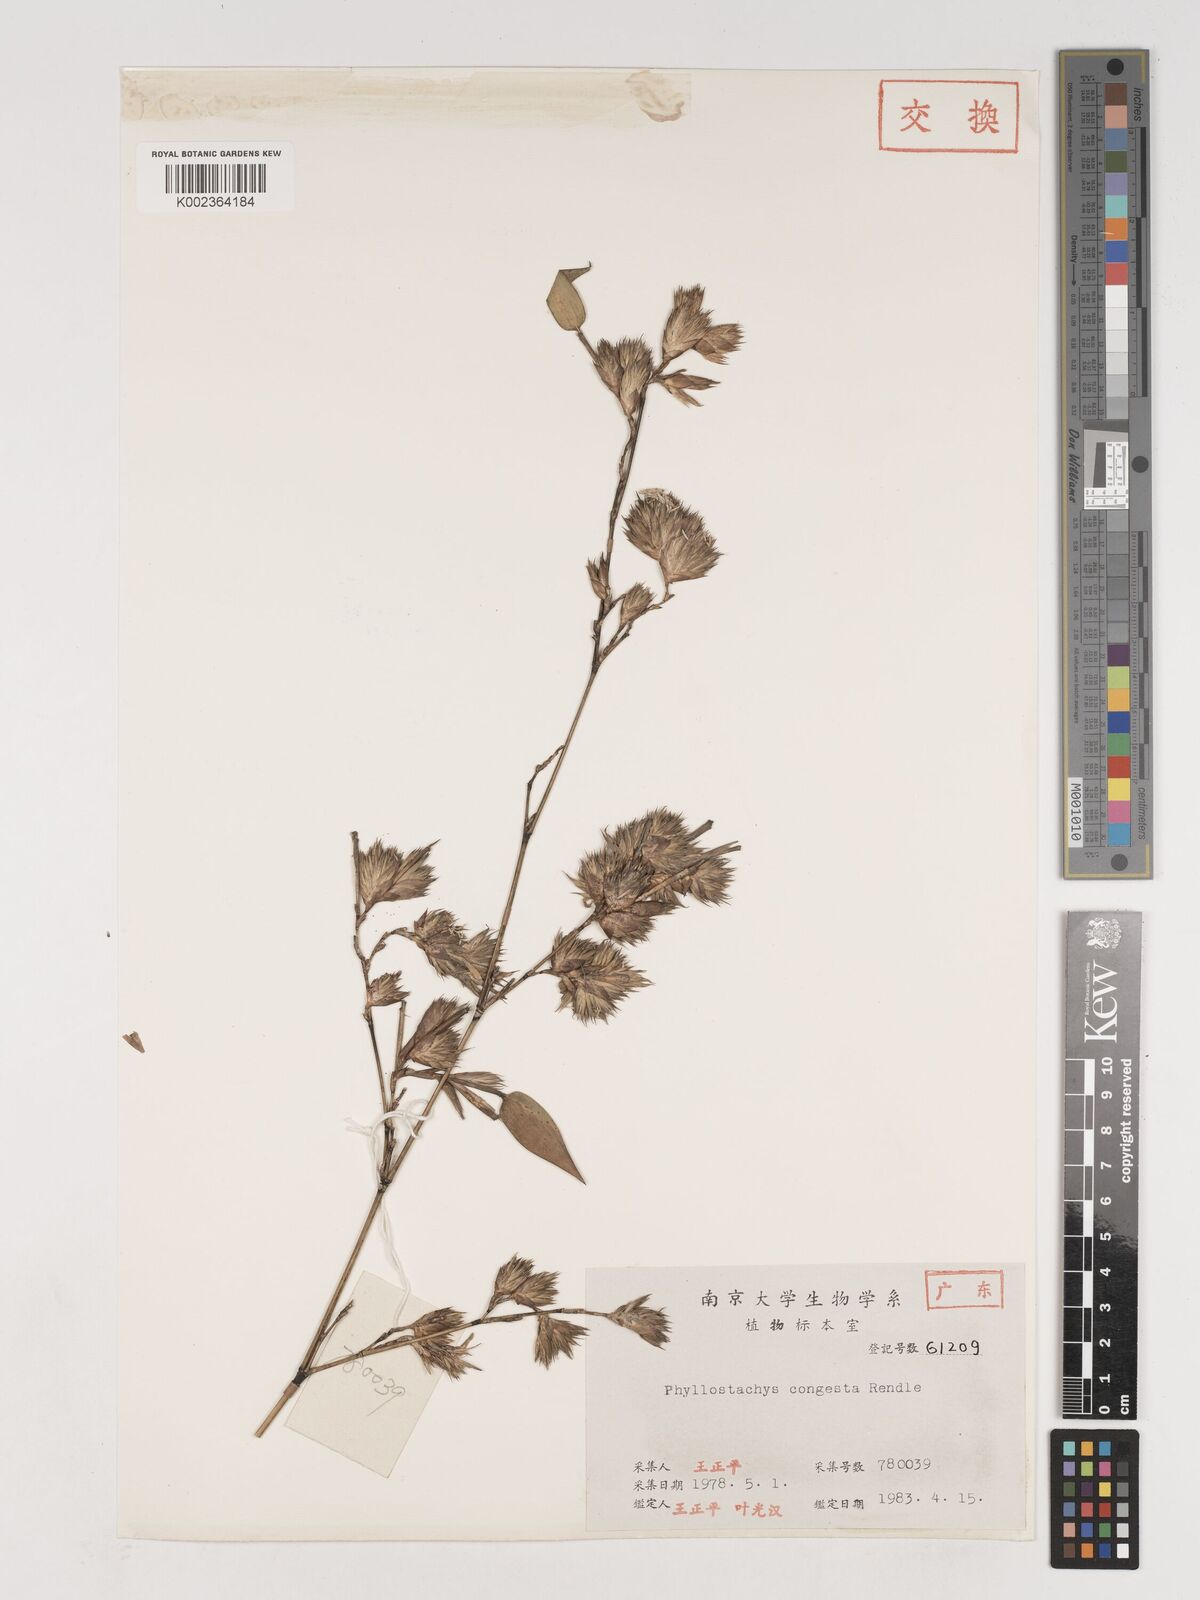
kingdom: Plantae
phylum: Tracheophyta
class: Liliopsida
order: Poales
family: Poaceae
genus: Phyllostachys
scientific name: Phyllostachys heteroclada
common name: Fishscale bamboo
